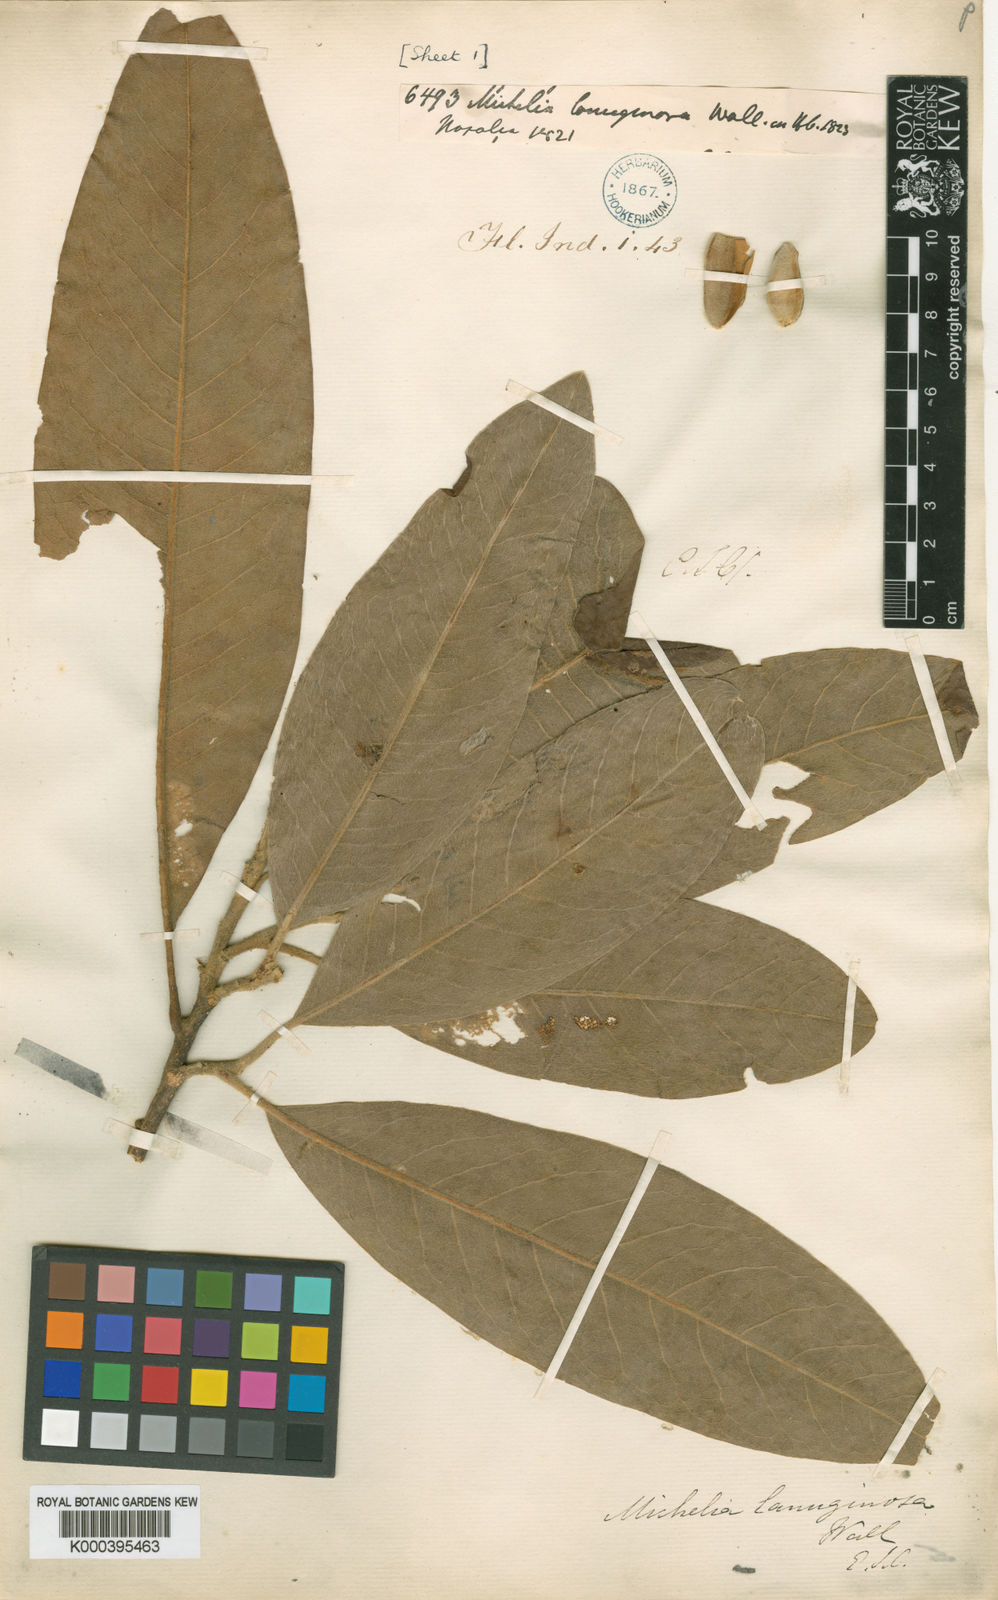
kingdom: Plantae
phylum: Tracheophyta
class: Magnoliopsida
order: Magnoliales
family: Magnoliaceae
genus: Magnolia
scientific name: Magnolia lanuginosa
